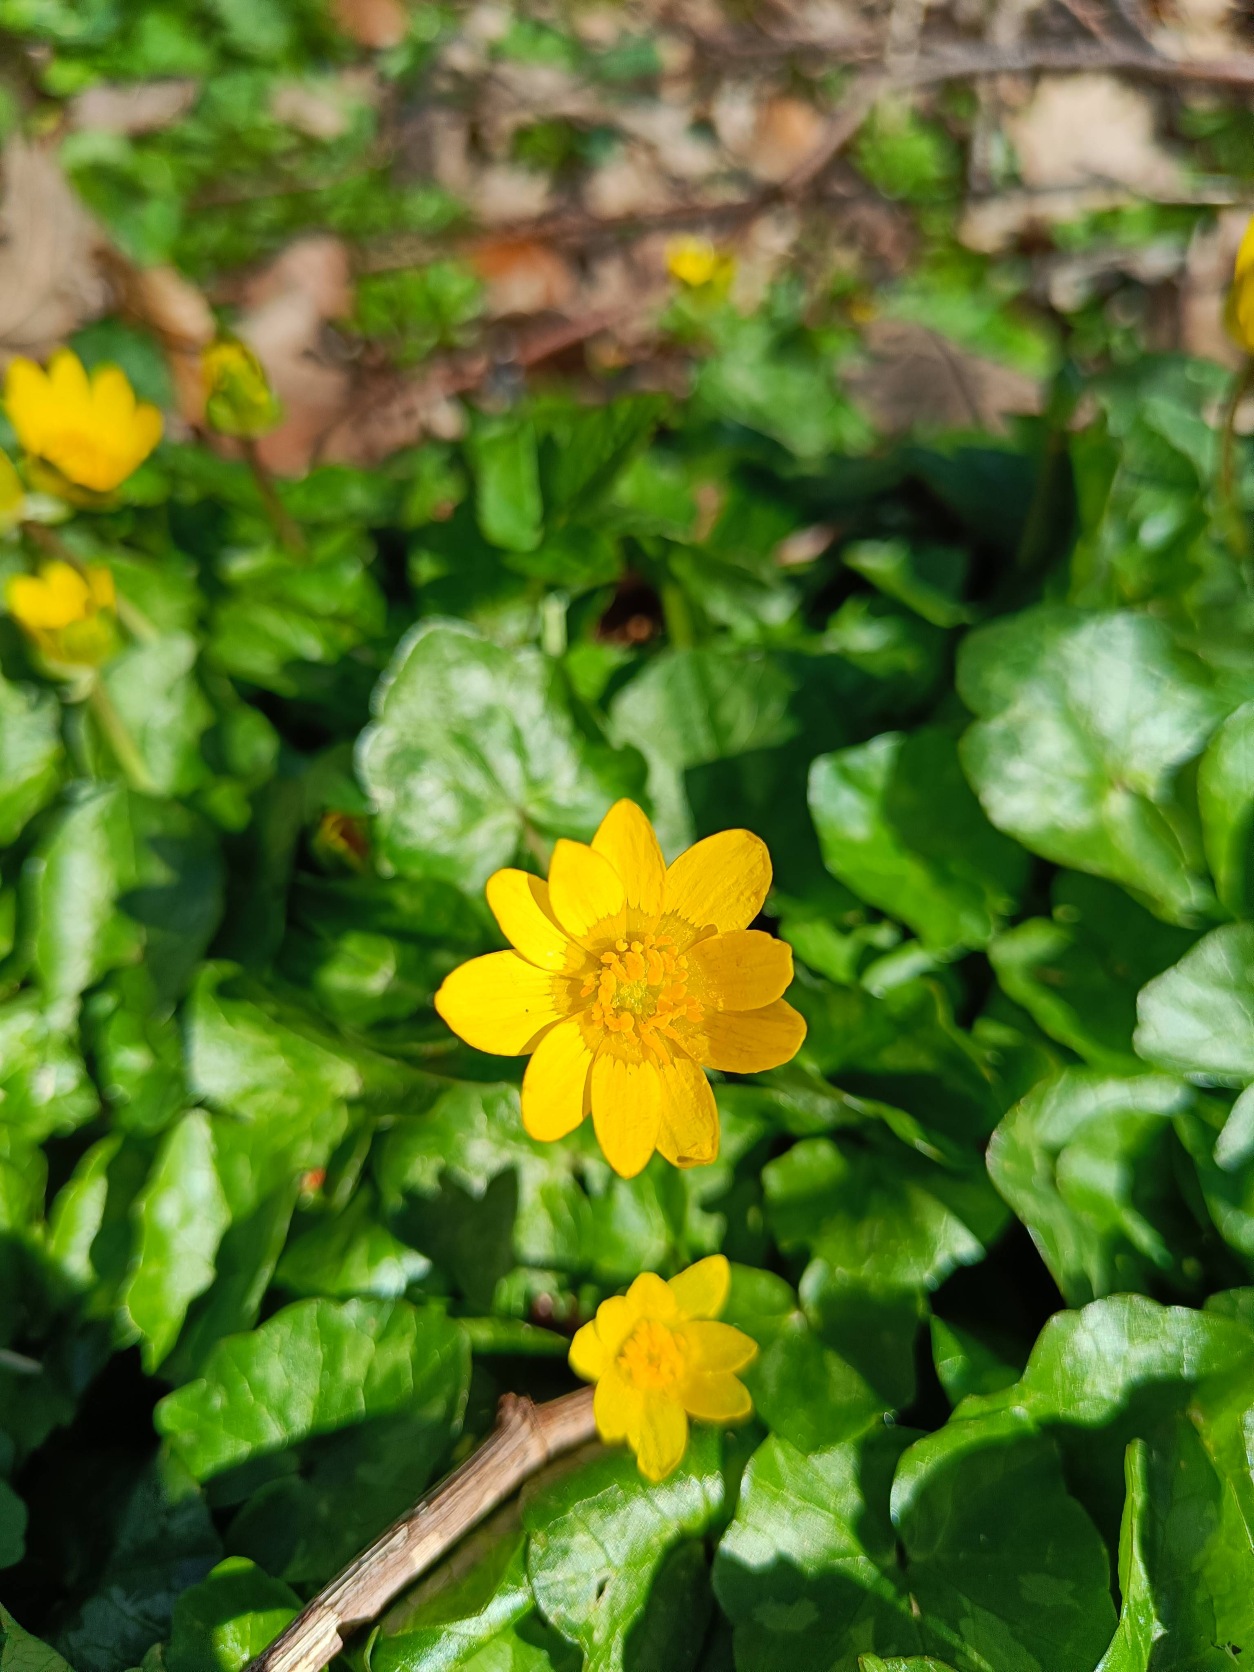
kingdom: Plantae
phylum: Tracheophyta
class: Magnoliopsida
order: Ranunculales
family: Ranunculaceae
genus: Ficaria
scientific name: Ficaria verna
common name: Vorterod
